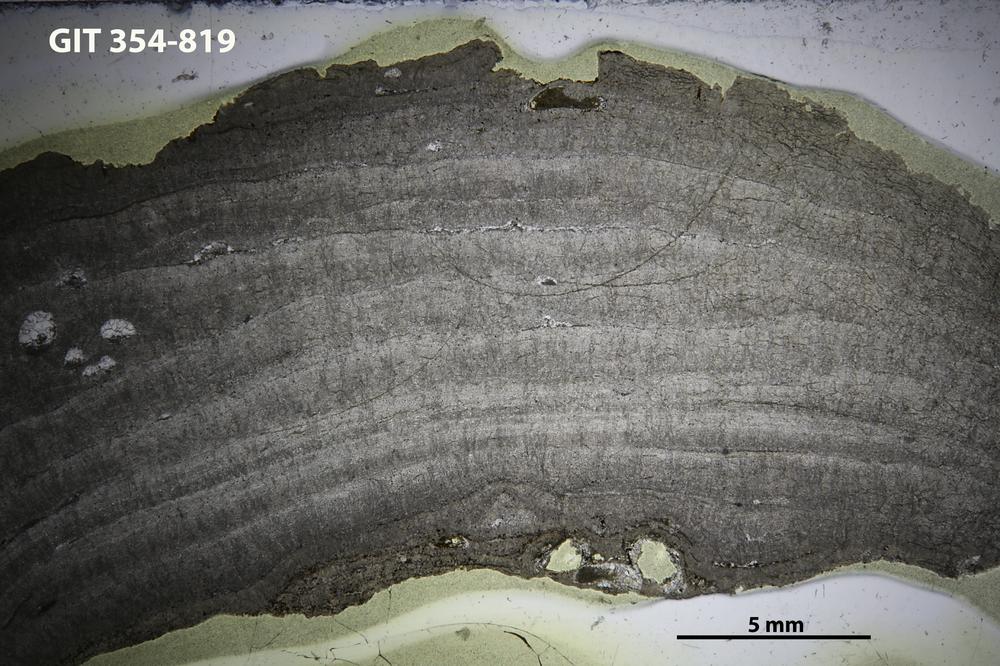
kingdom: Animalia
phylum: Porifera
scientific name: Porifera
